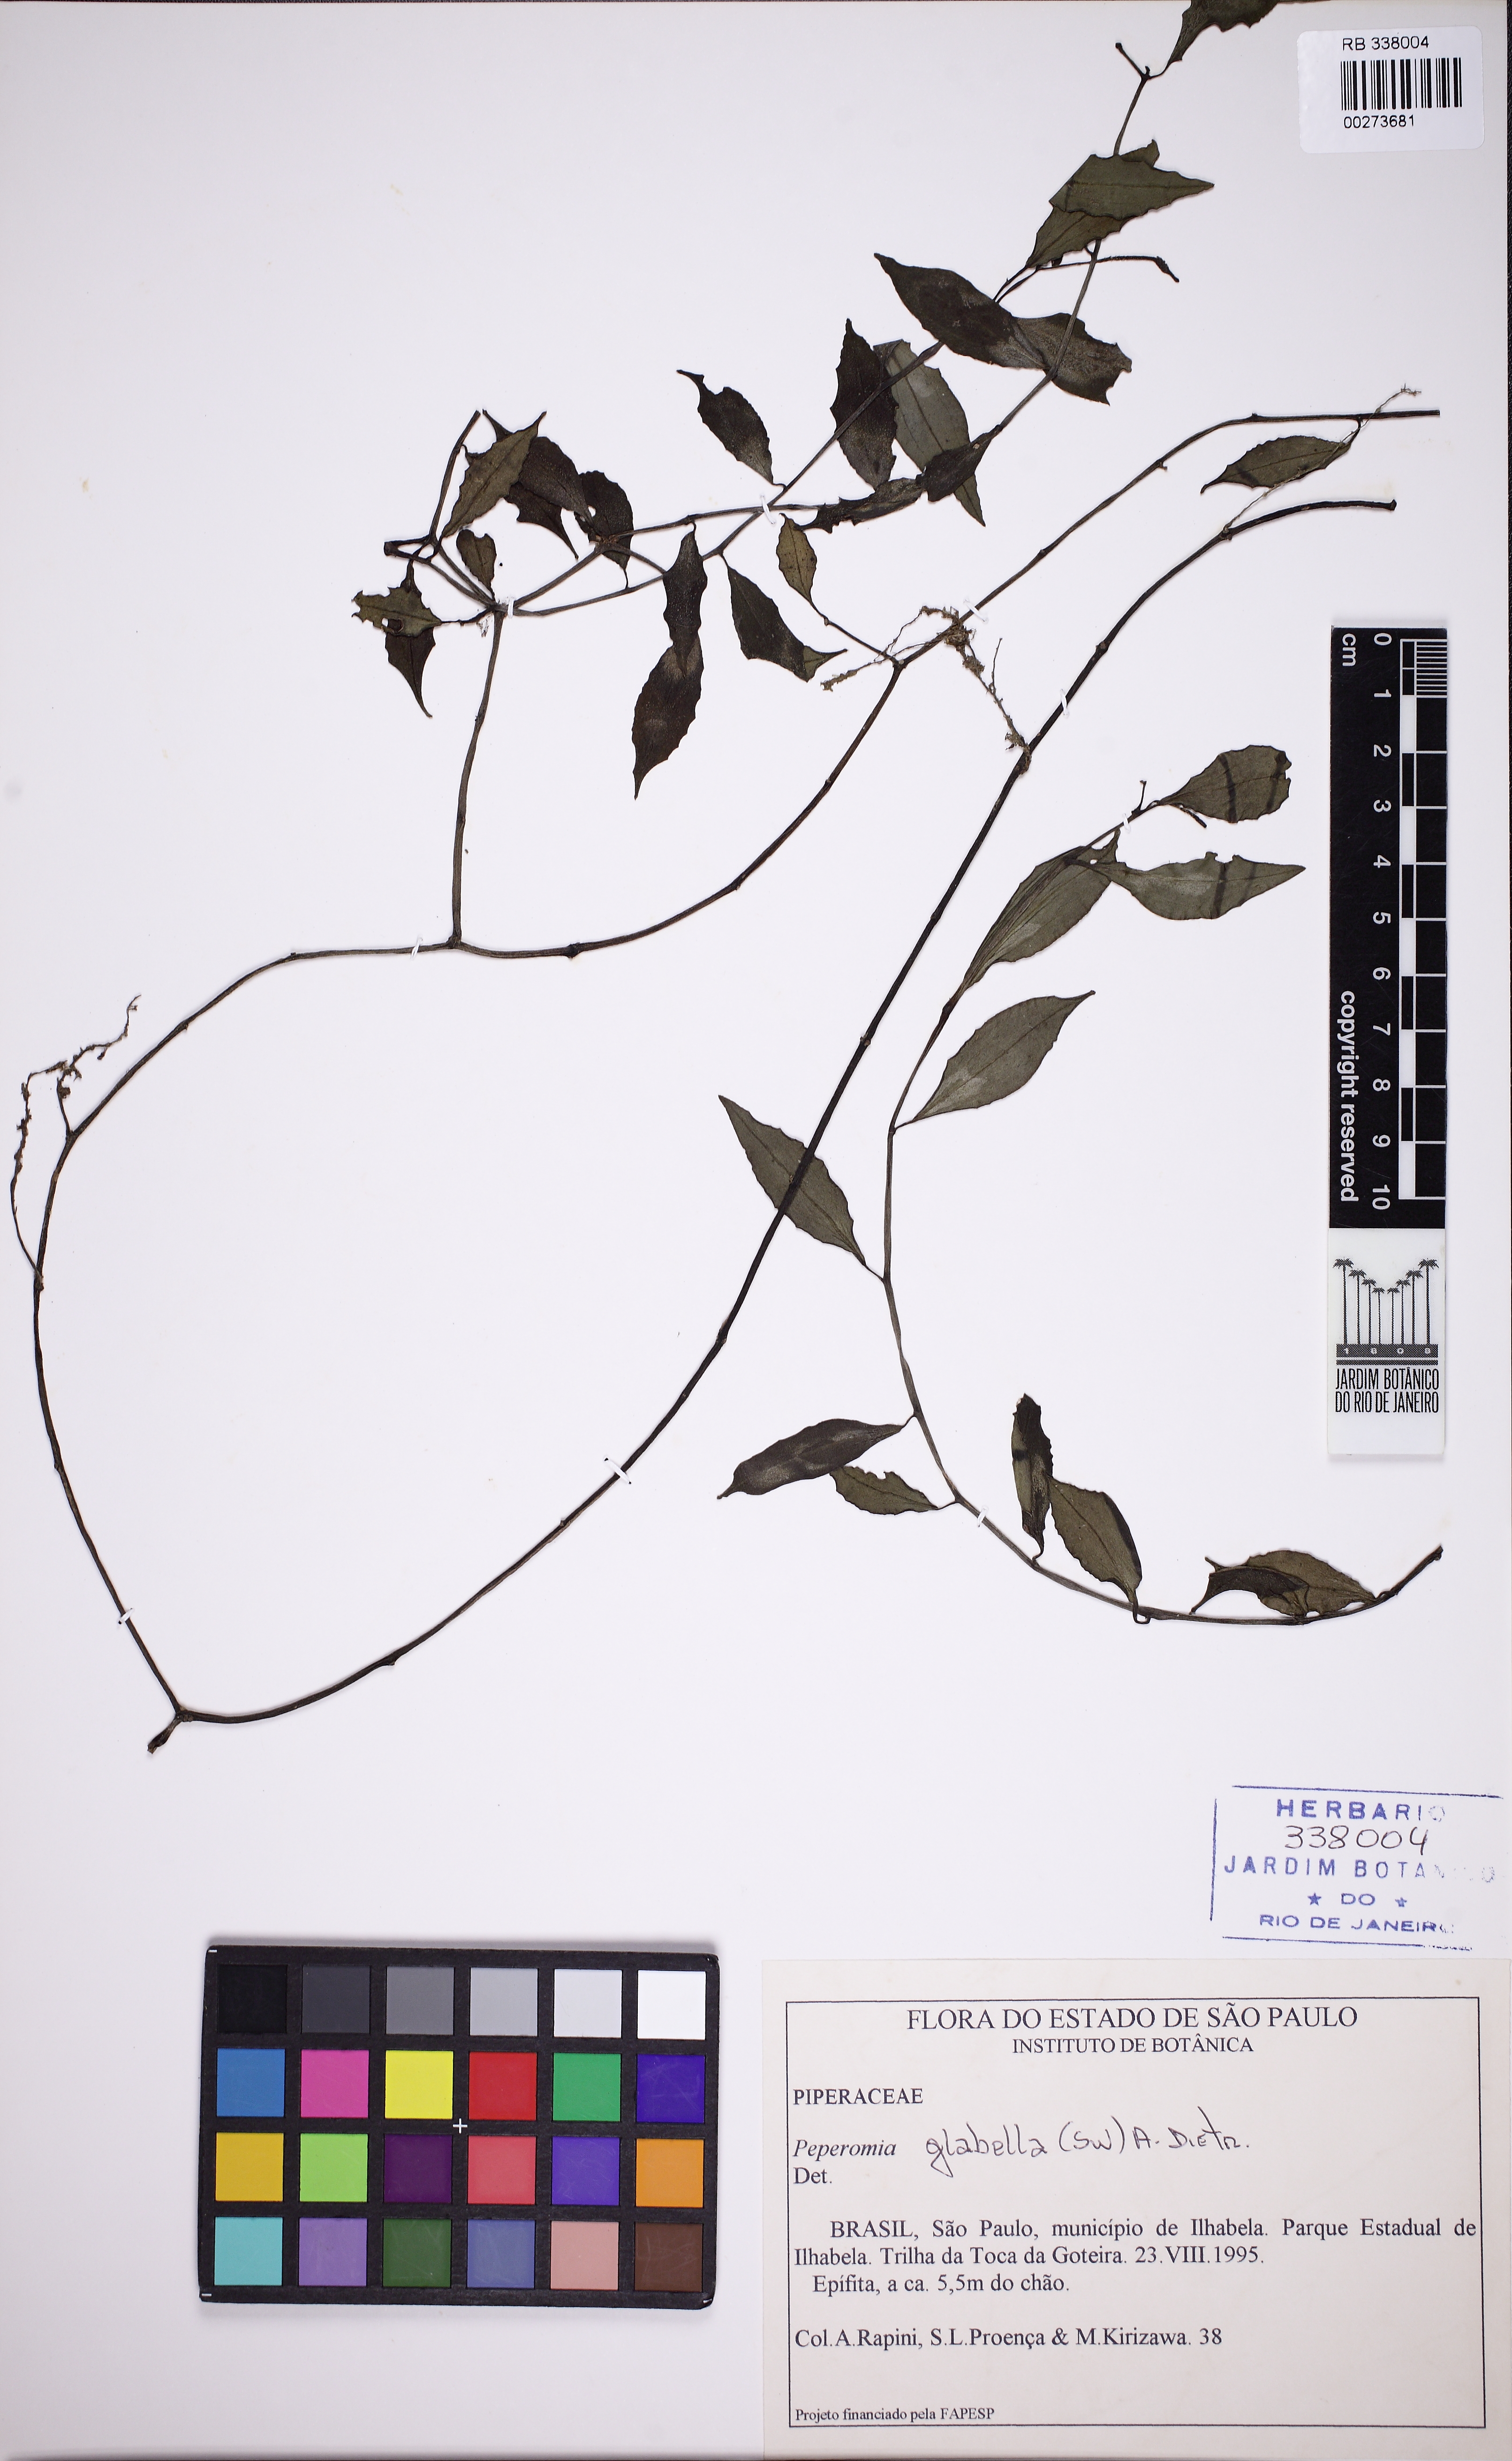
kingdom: Plantae
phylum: Tracheophyta
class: Magnoliopsida
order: Piperales
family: Piperaceae
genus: Peperomia
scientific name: Peperomia glabella
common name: Cypress peperomia
